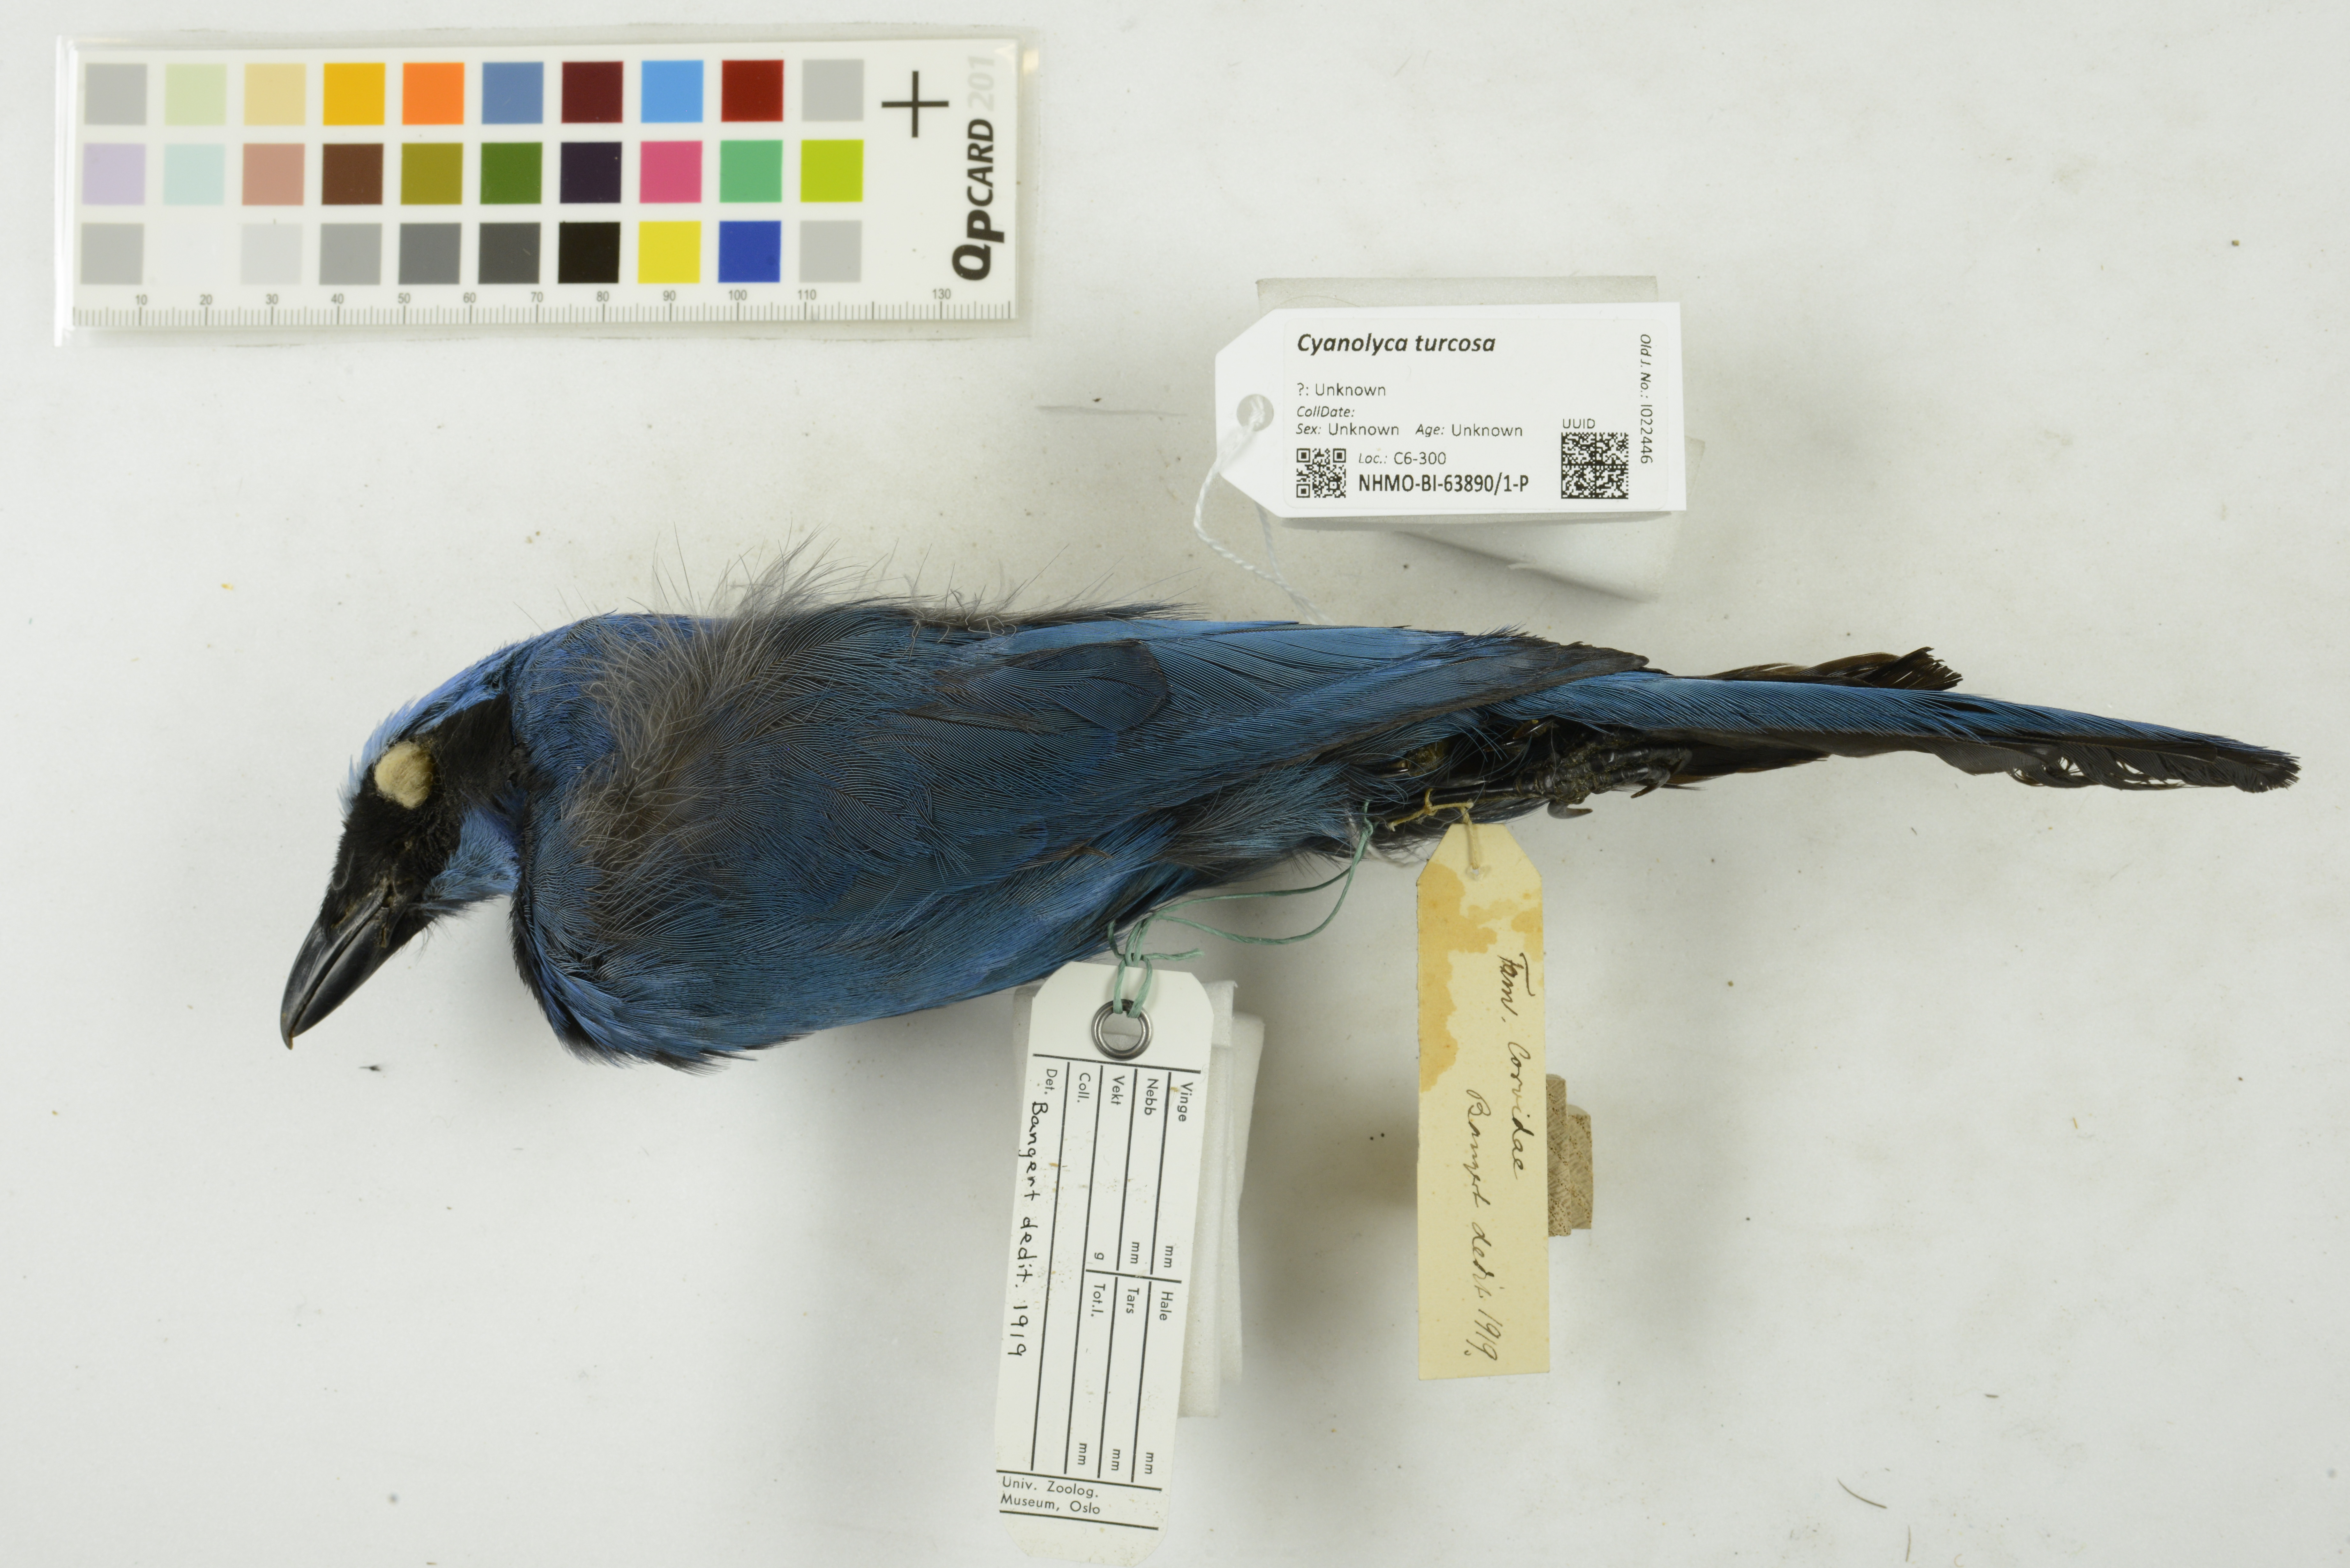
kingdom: Animalia
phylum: Chordata
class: Aves
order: Passeriformes
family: Corvidae
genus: Cyanolyca
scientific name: Cyanolyca turcosa
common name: Turquoise jay
